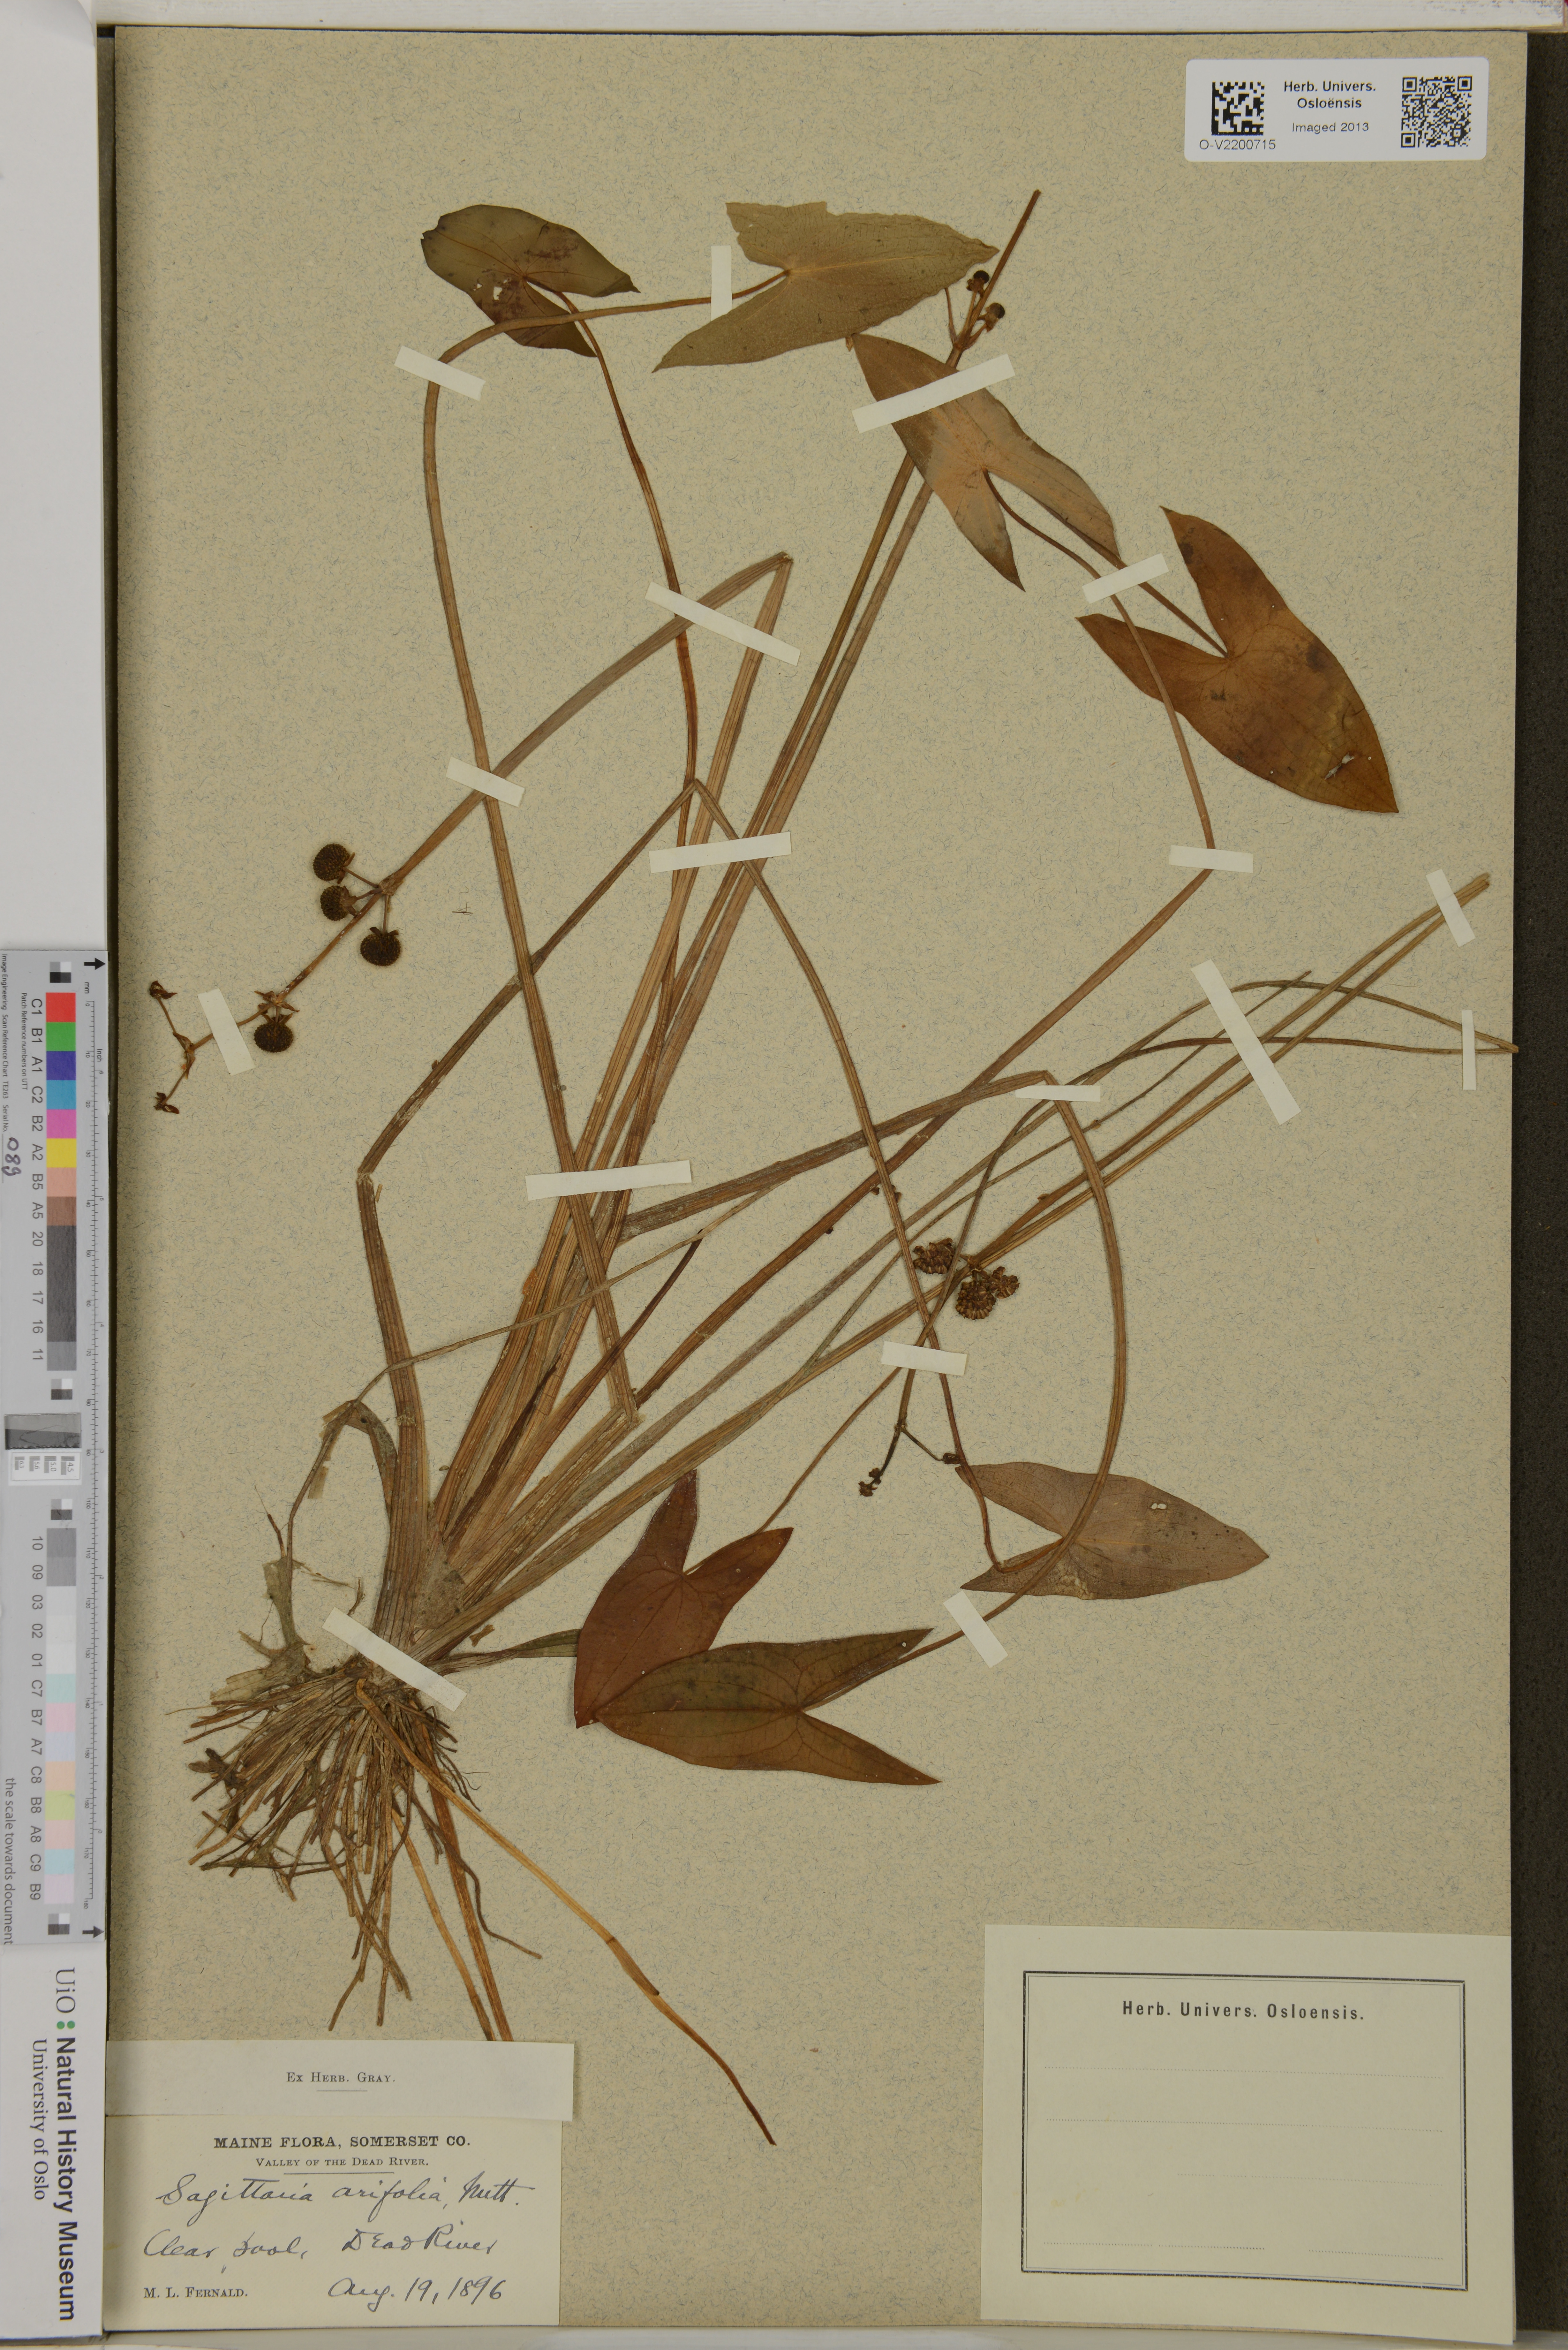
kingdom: Plantae
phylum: Tracheophyta
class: Liliopsida
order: Alismatales
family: Alismataceae
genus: Sagittaria
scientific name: Sagittaria cuneata
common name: Northern arrowhead
